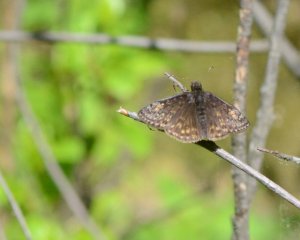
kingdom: Animalia
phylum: Arthropoda
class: Insecta
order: Lepidoptera
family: Hesperiidae
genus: Gesta
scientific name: Gesta
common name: Juvenal's Duskywing
